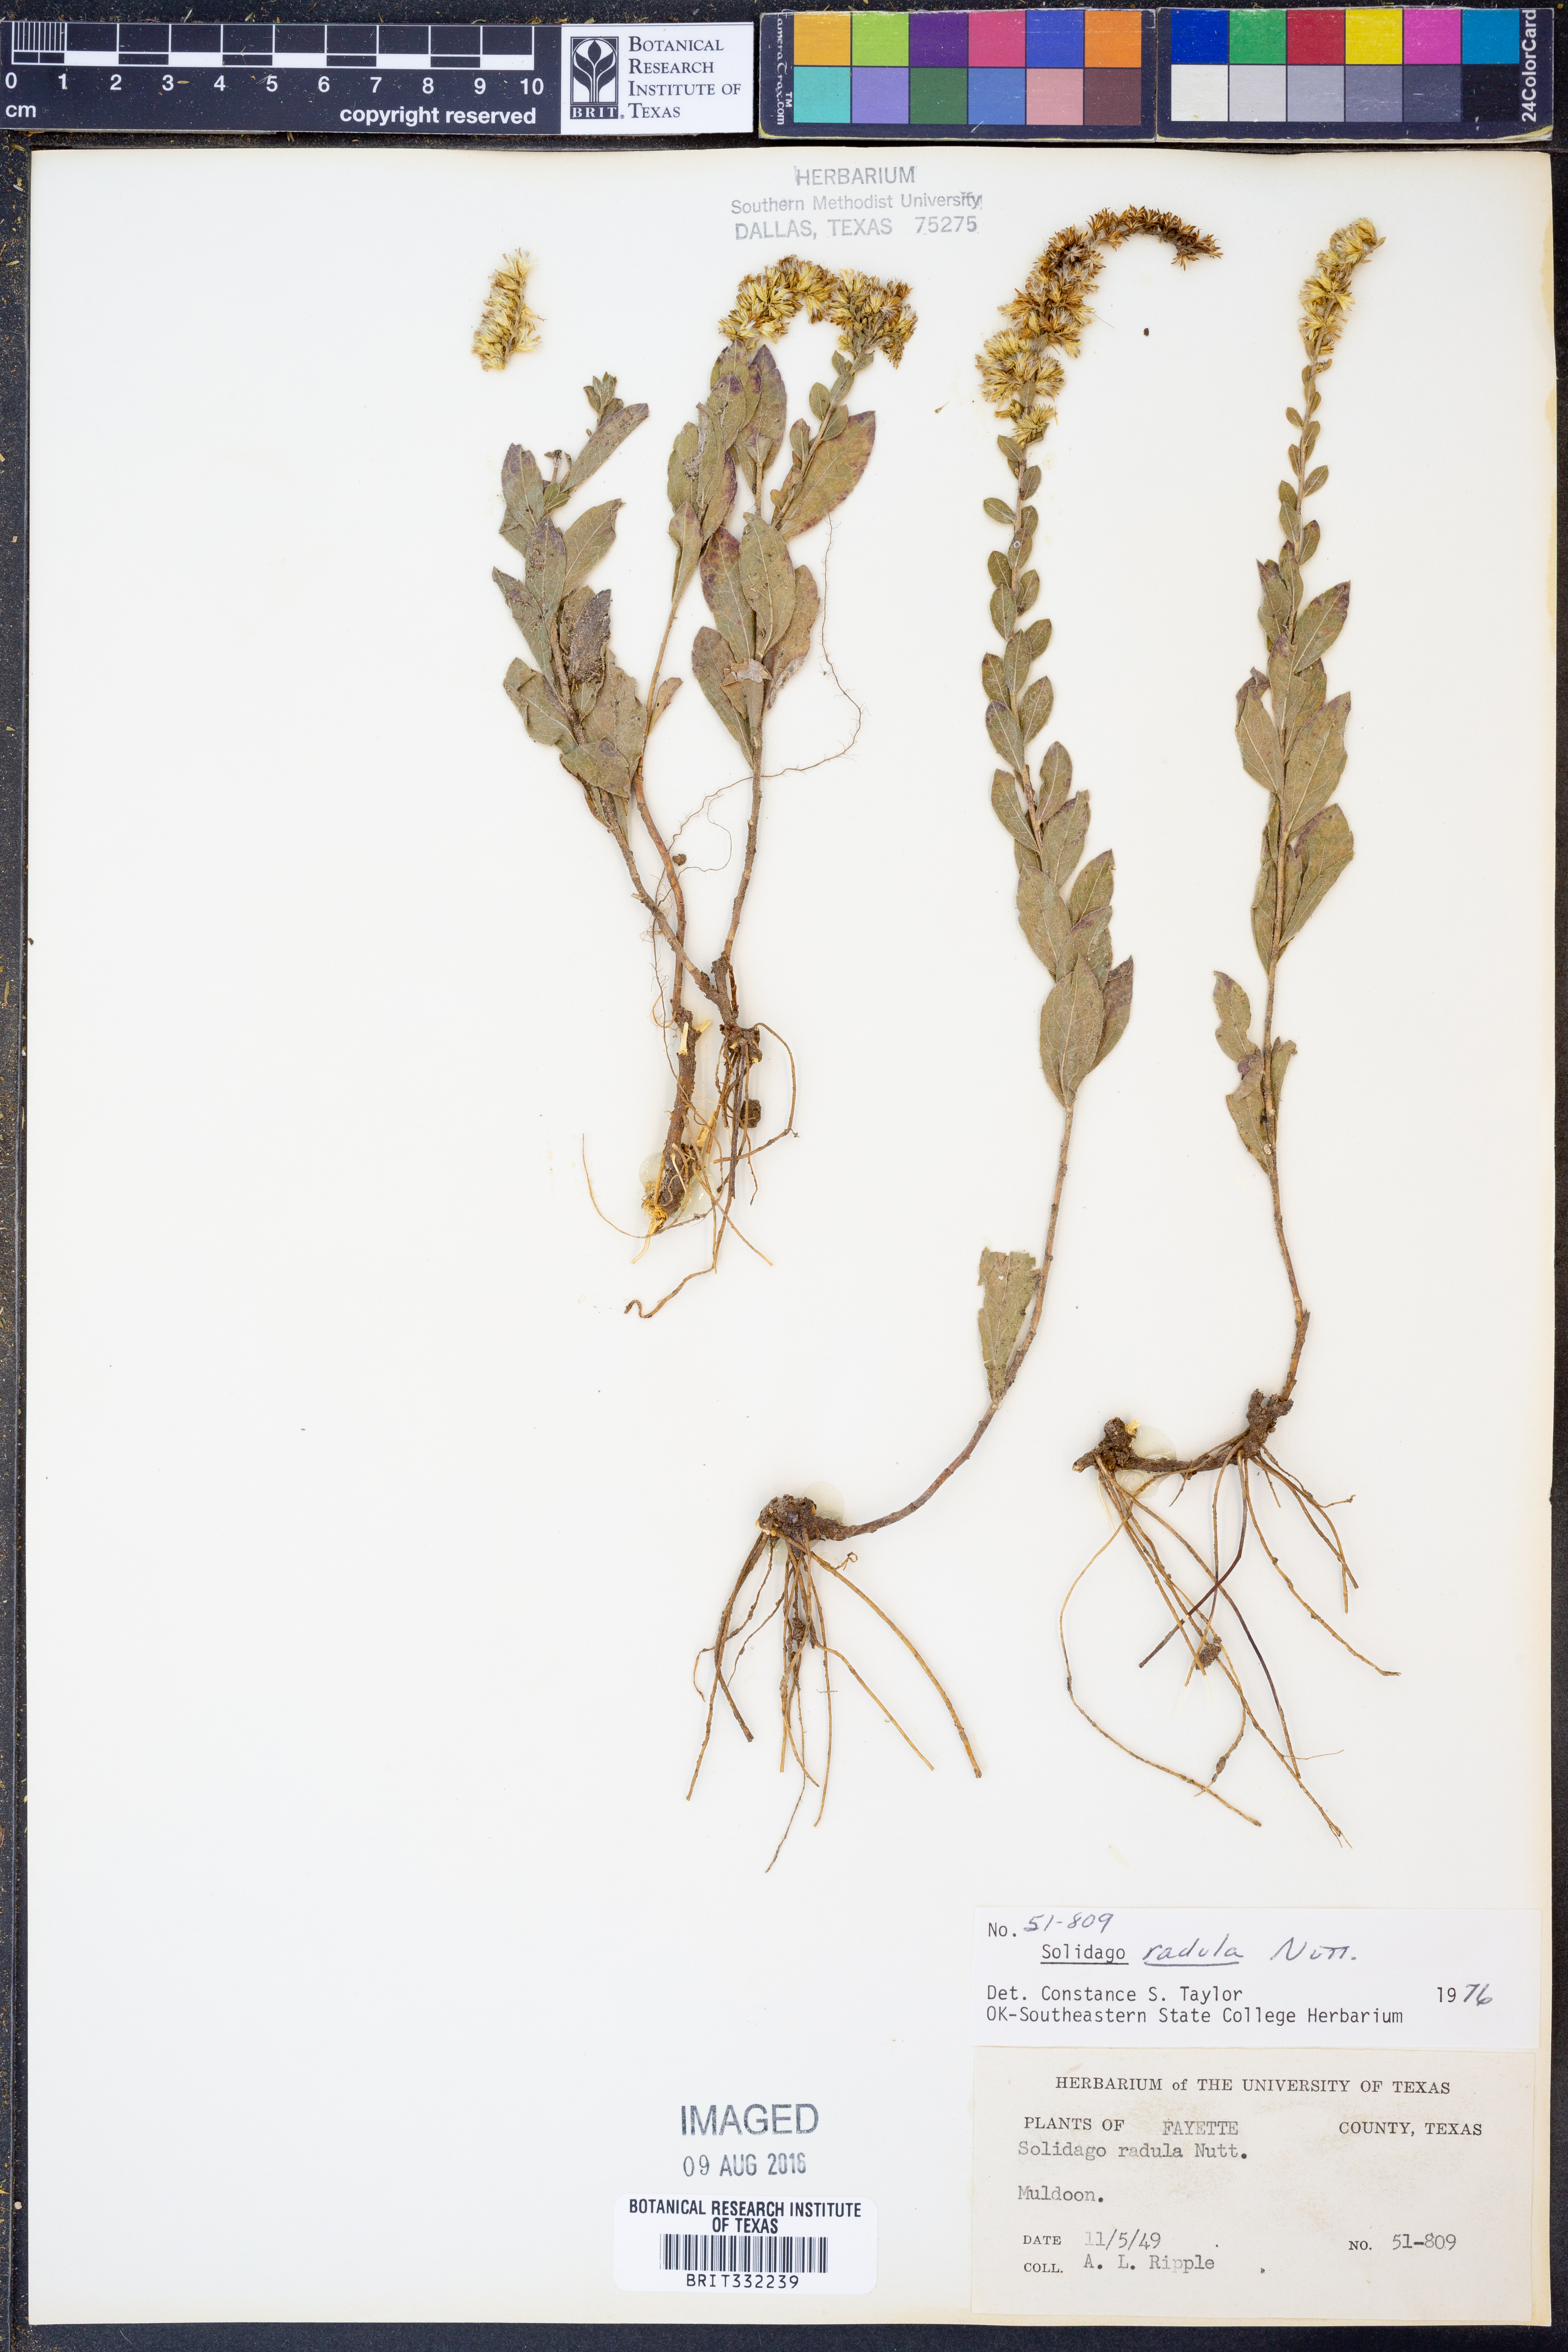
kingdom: Plantae
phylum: Tracheophyta
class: Magnoliopsida
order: Asterales
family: Asteraceae
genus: Solidago
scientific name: Solidago radula
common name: Western rough goldenrod
